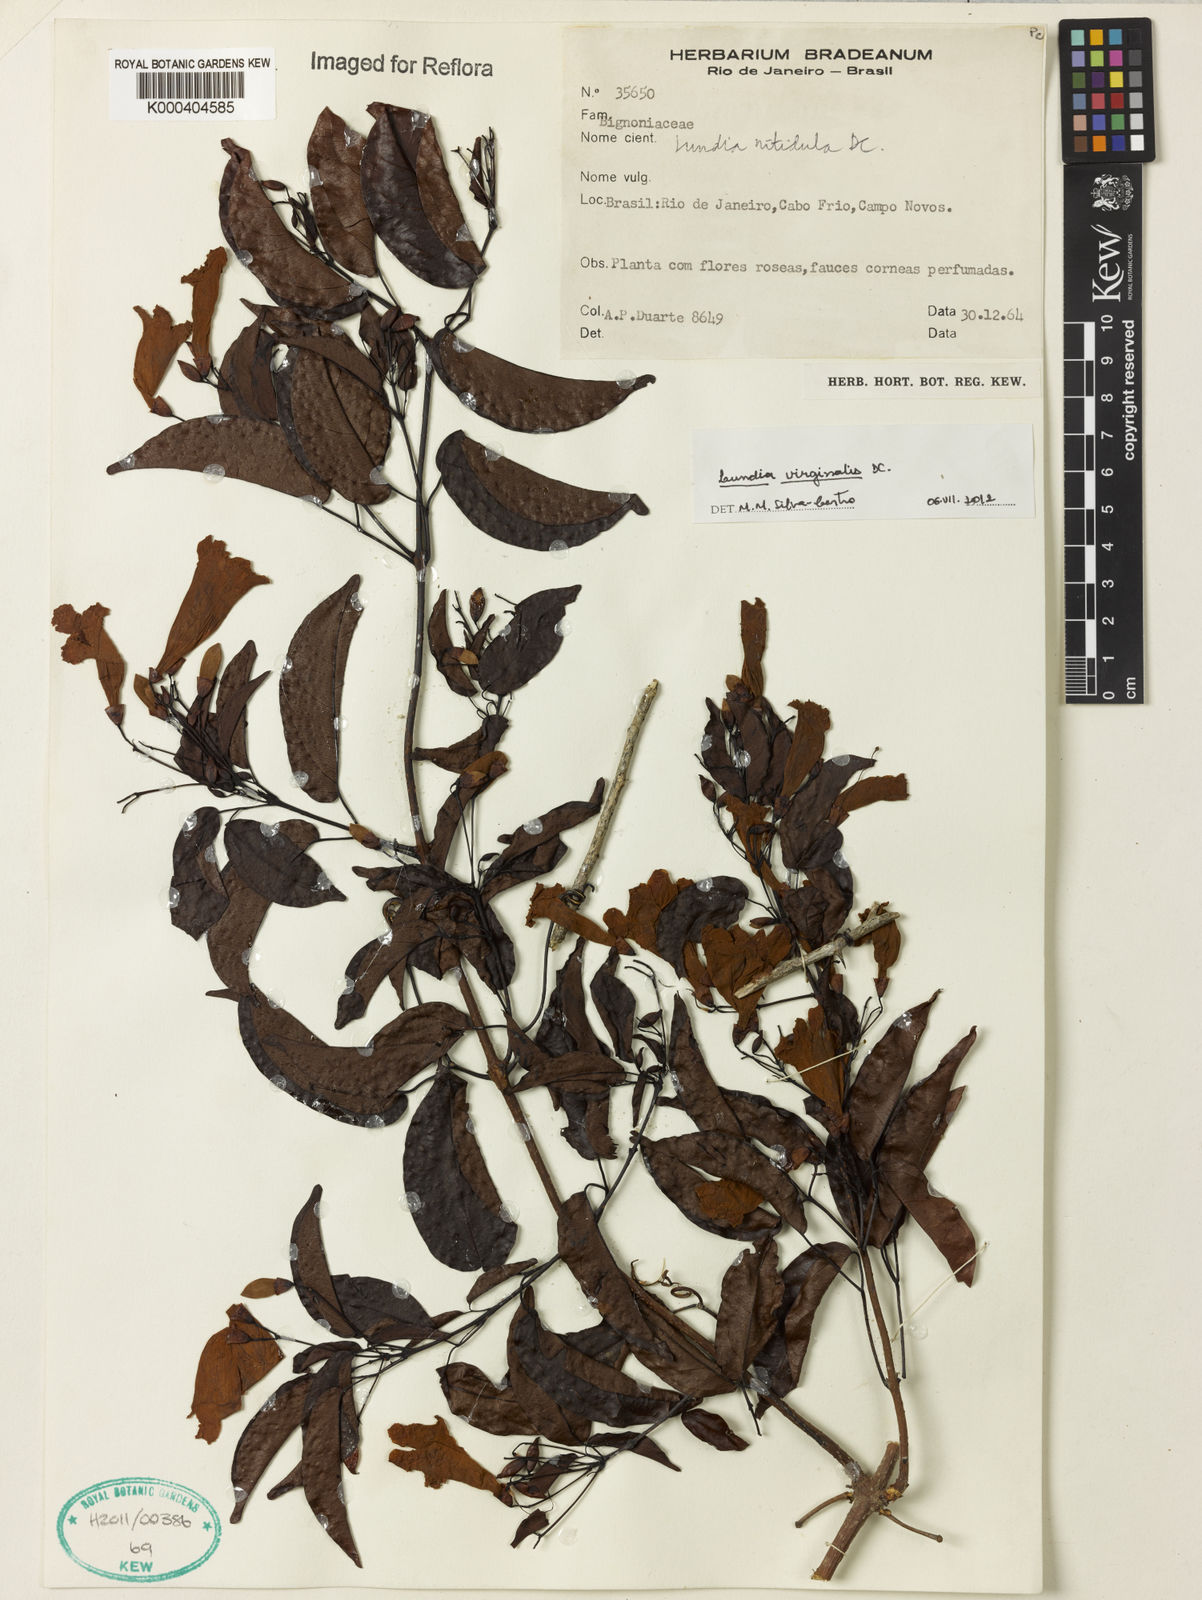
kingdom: Plantae
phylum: Tracheophyta
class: Magnoliopsida
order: Lamiales
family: Bignoniaceae
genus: Lundia
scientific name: Lundia virginalis
